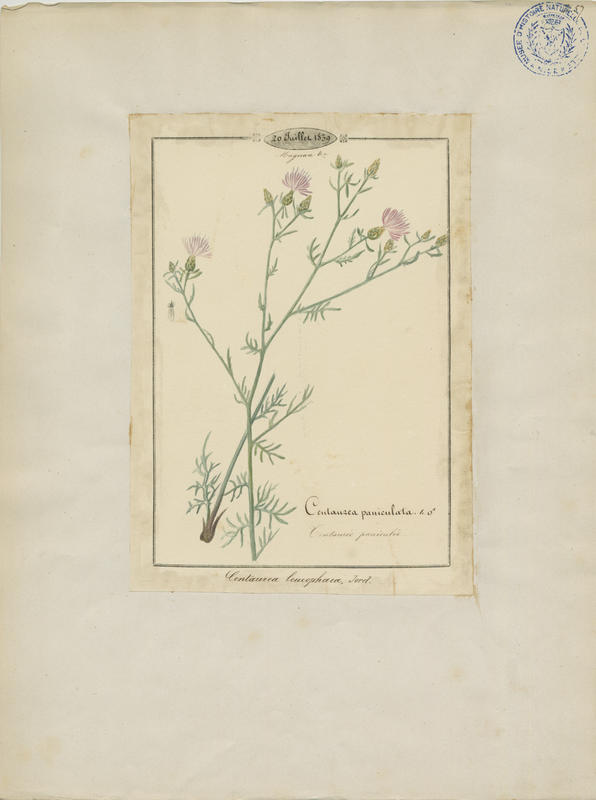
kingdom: Plantae
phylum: Tracheophyta
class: Magnoliopsida
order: Asterales
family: Asteraceae
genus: Centaurea
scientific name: Centaurea paniculata
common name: Jersey knapweed
